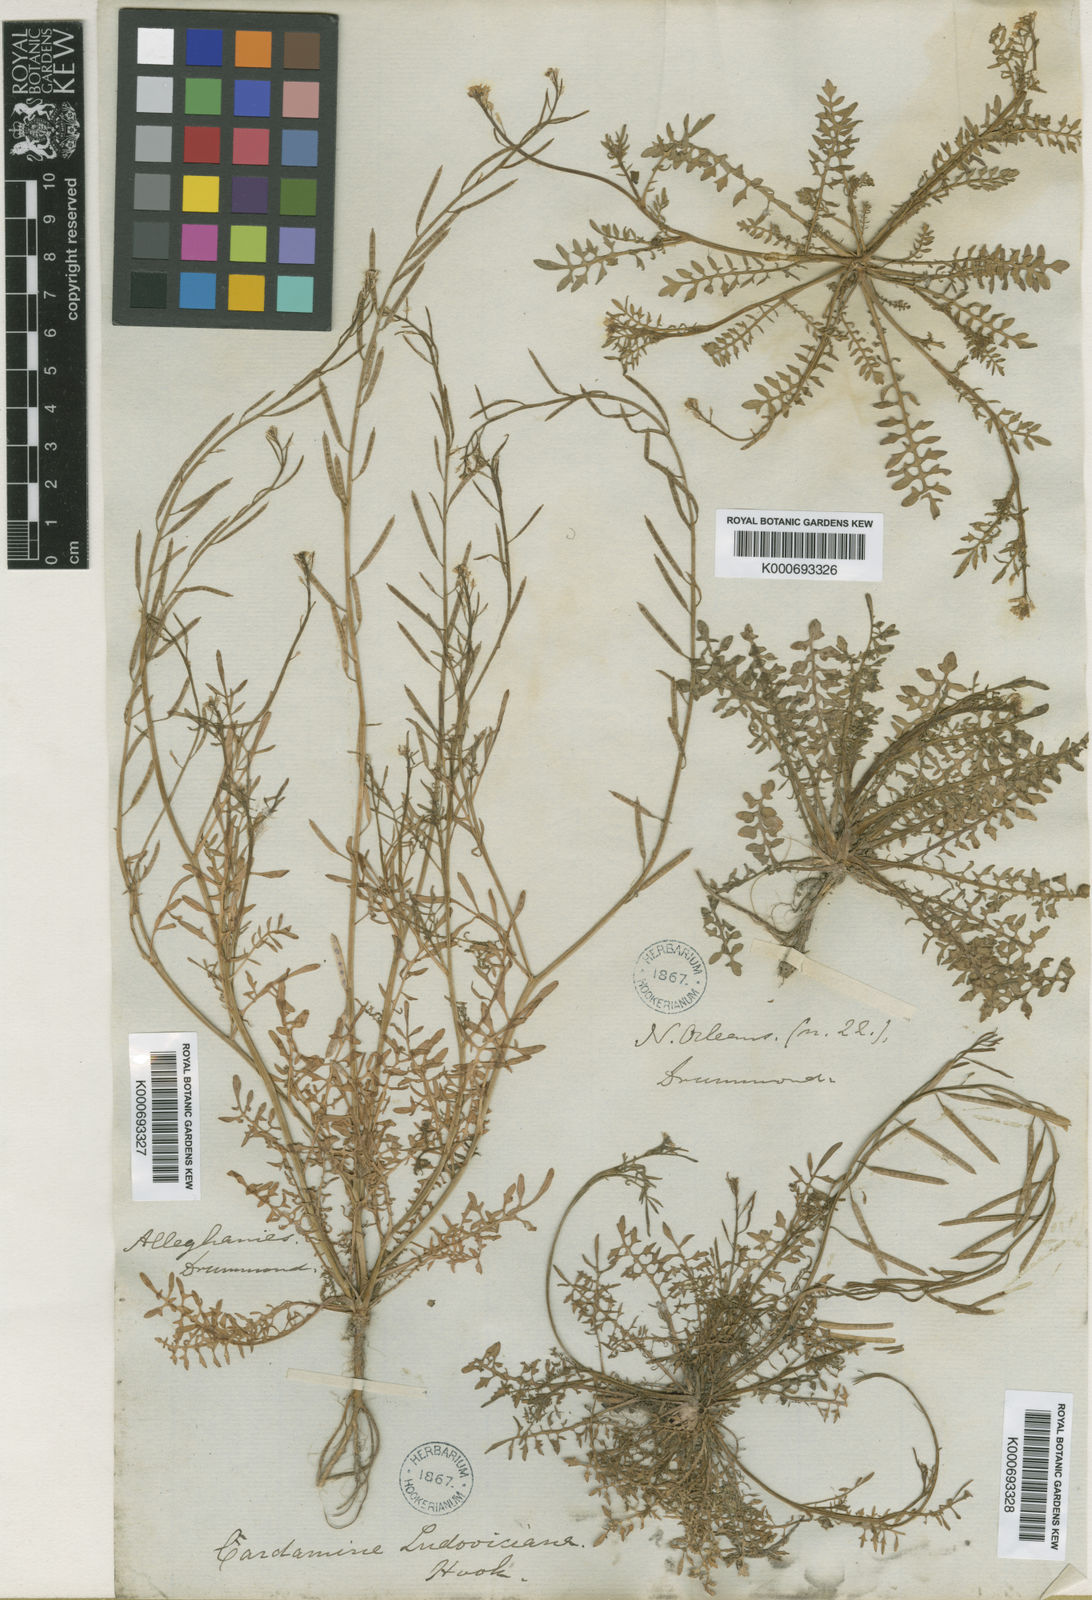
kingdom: Plantae
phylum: Tracheophyta
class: Magnoliopsida
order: Brassicales
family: Brassicaceae
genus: Planodes
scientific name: Planodes virginicum
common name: Virginia cress
